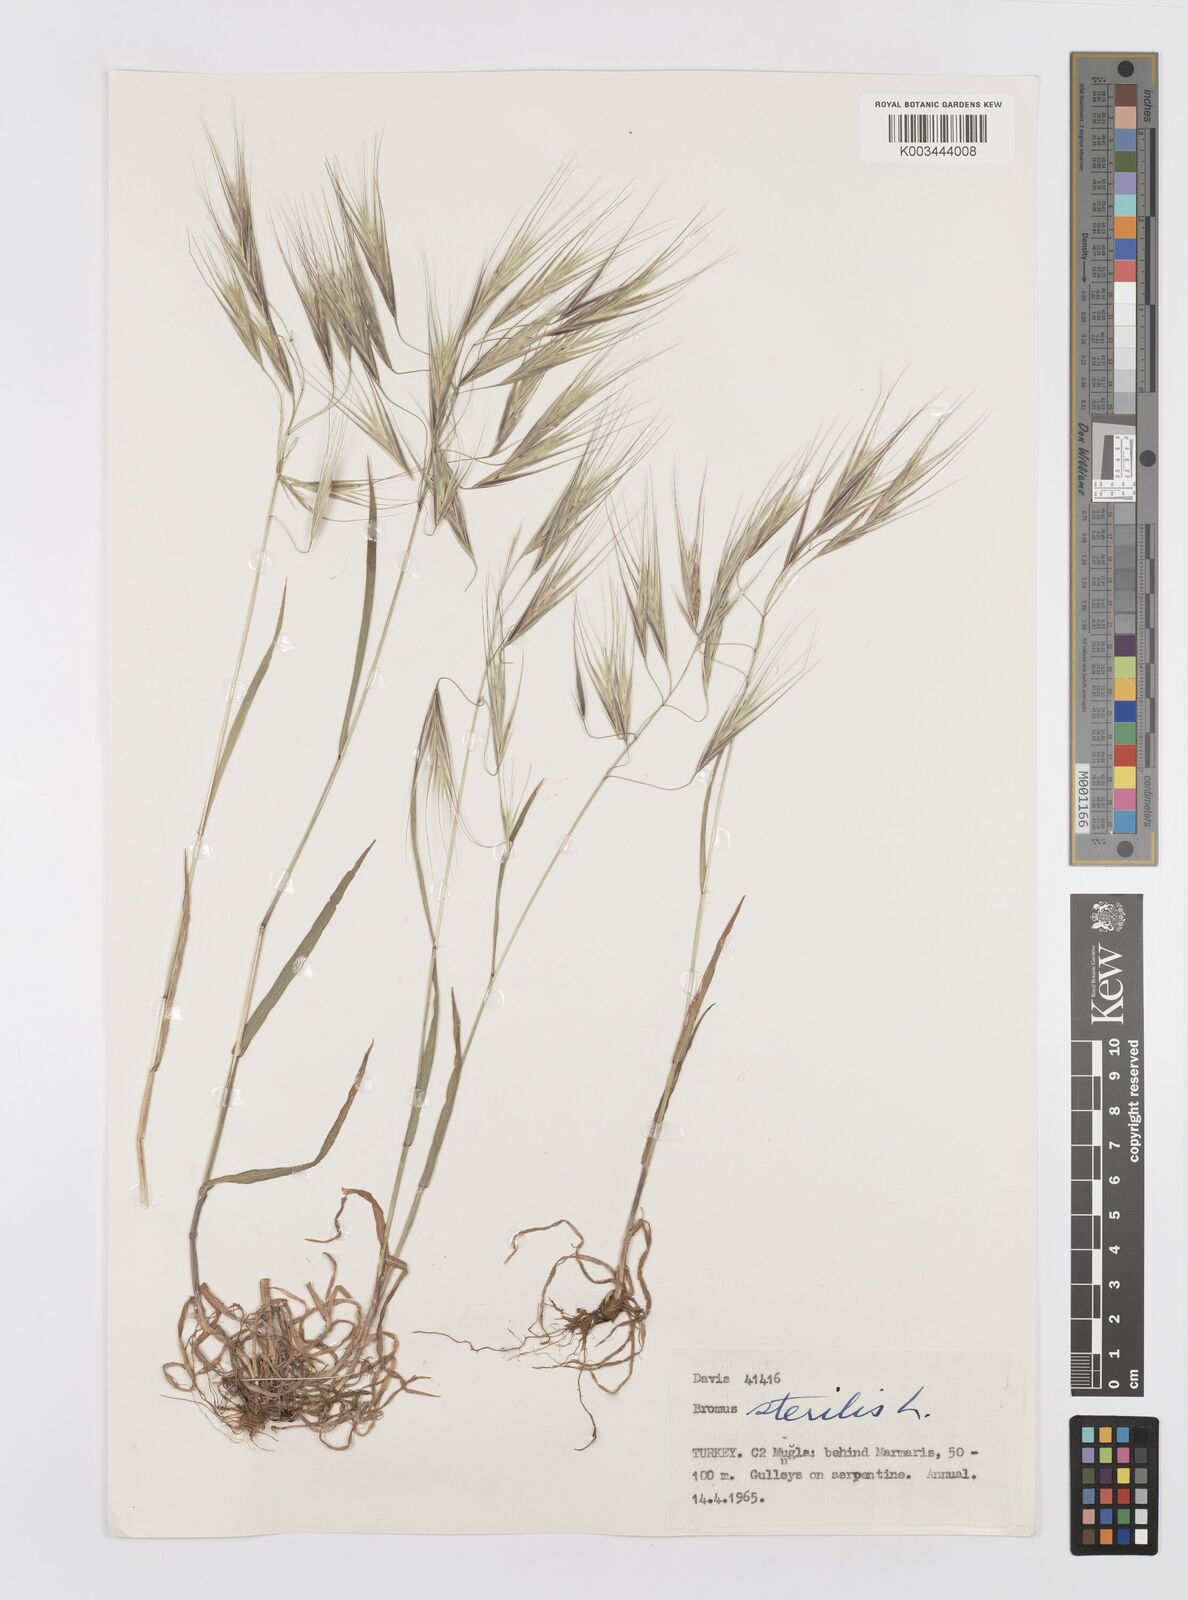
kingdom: Plantae
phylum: Tracheophyta
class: Liliopsida
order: Poales
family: Poaceae
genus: Bromus
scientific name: Bromus sterilis
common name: Poverty brome
